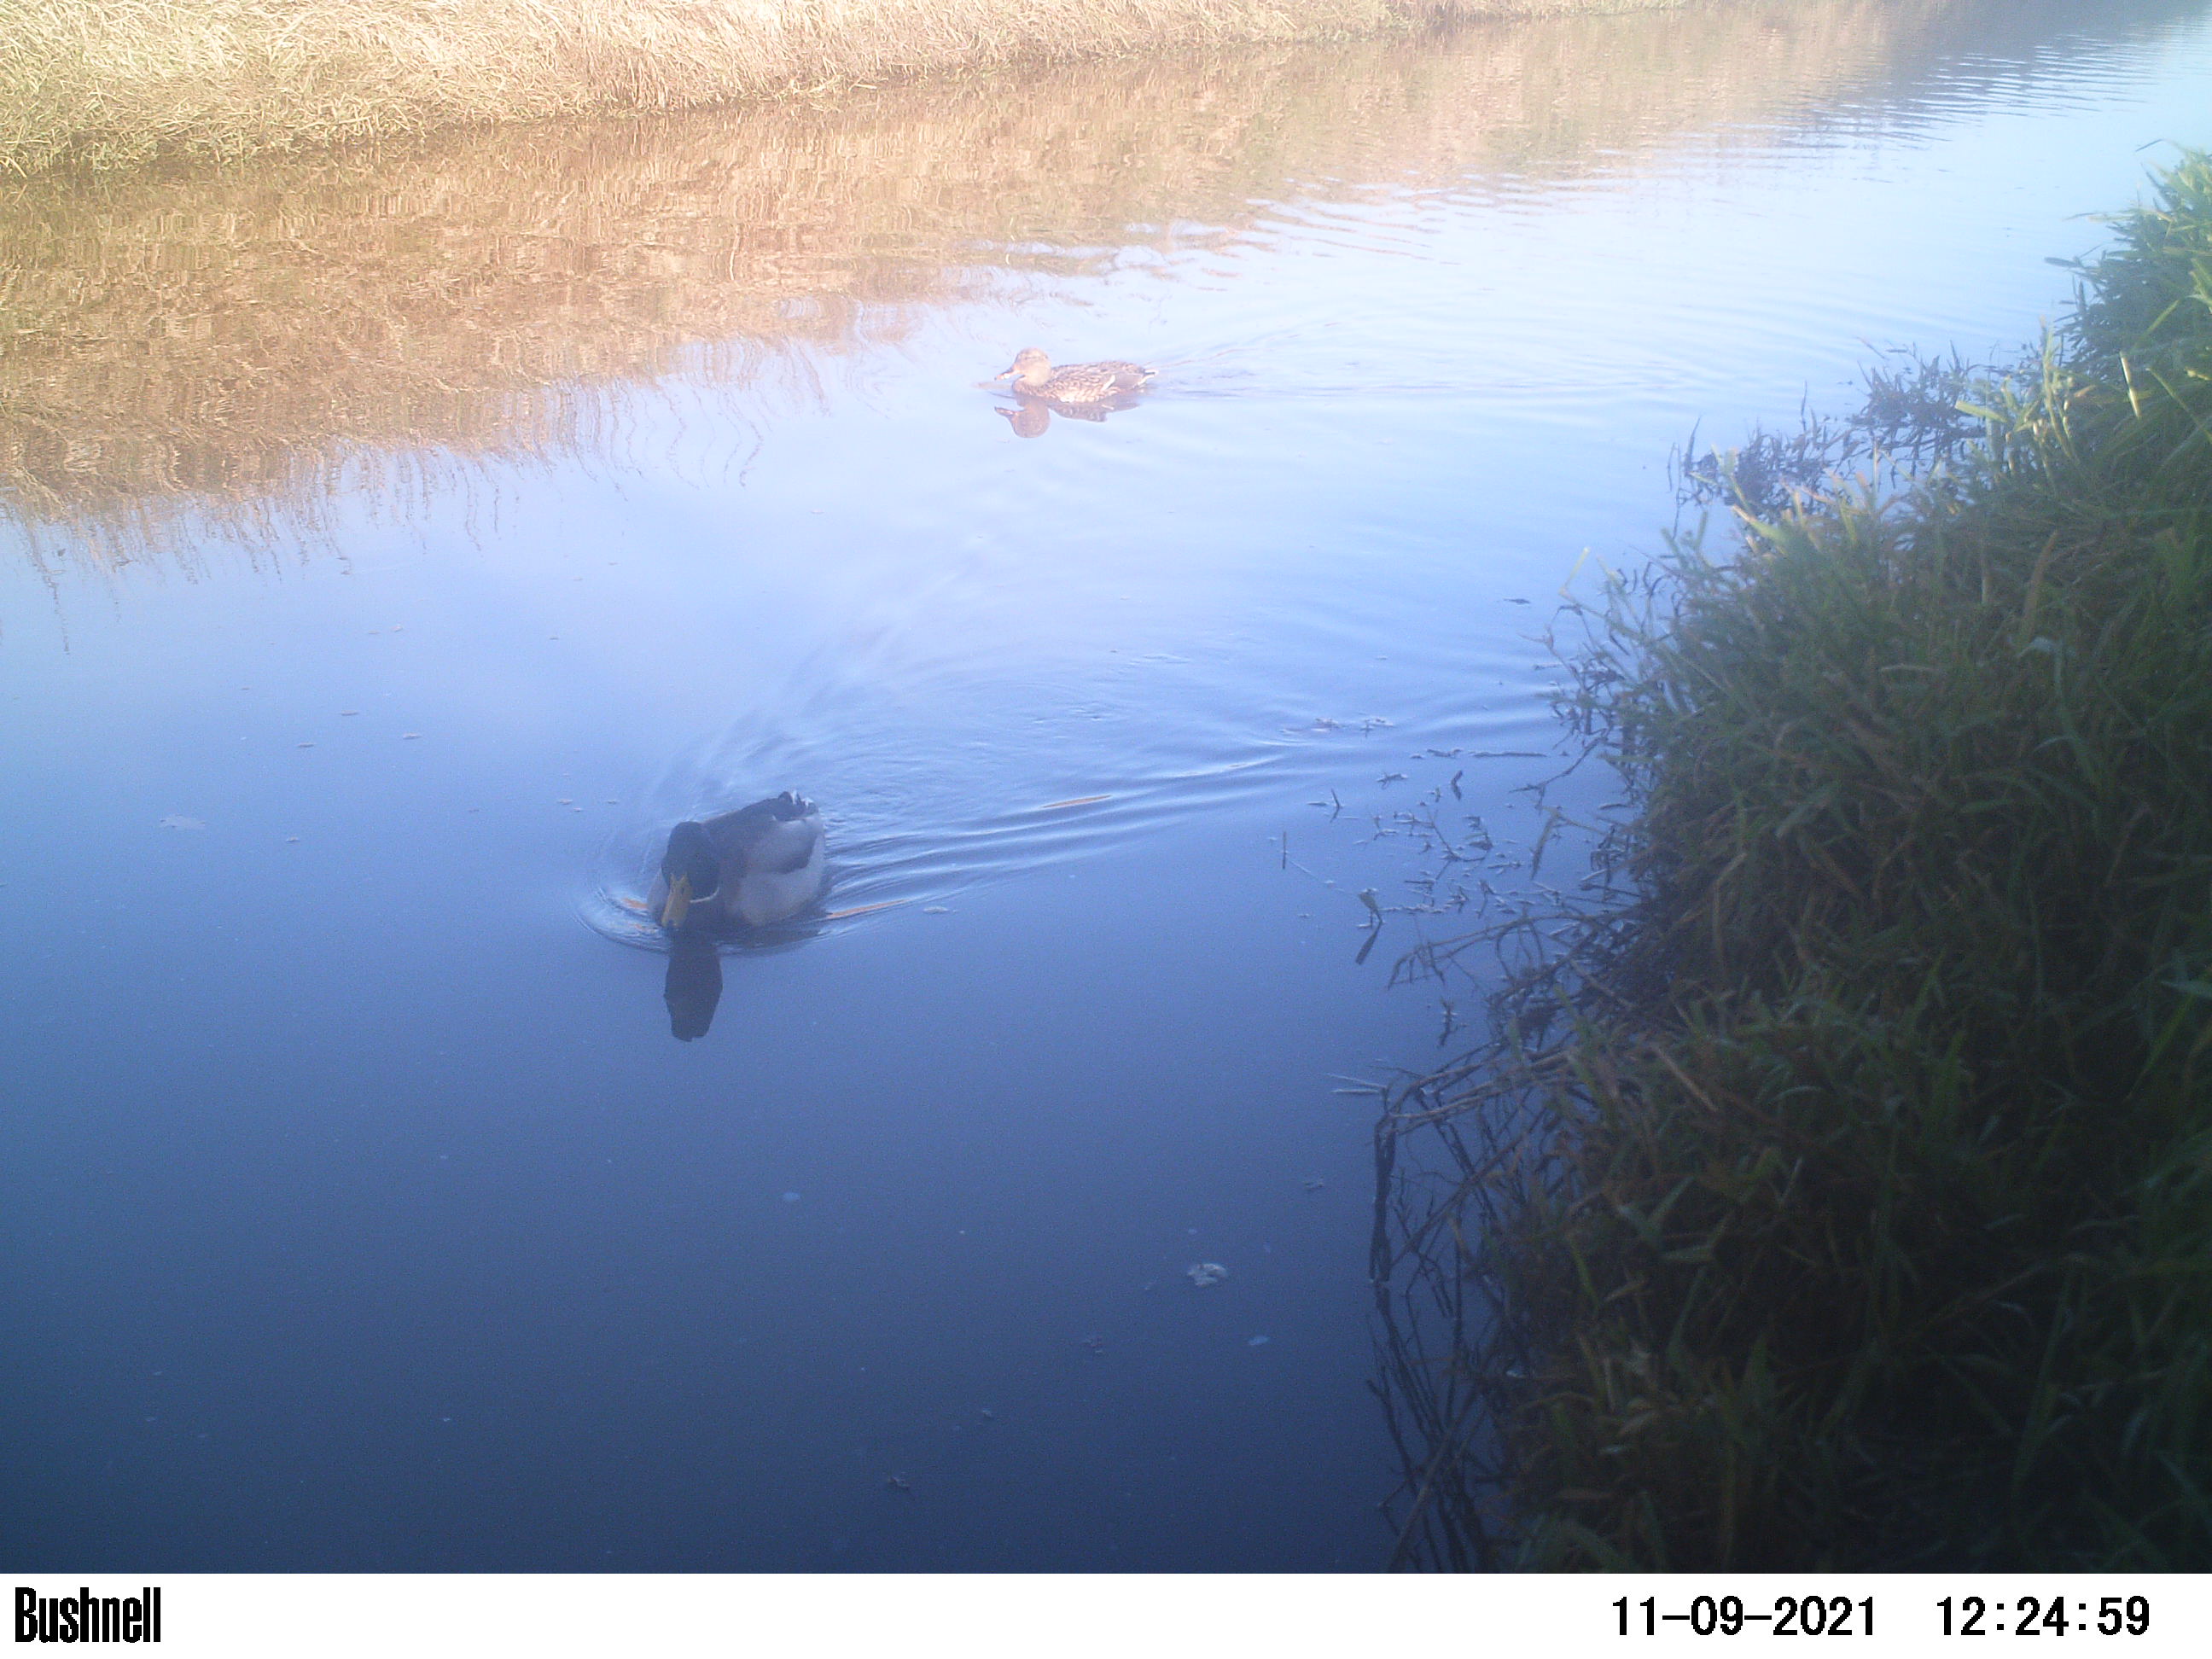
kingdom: Animalia
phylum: Chordata
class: Aves
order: Anseriformes
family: Anatidae
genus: Anas
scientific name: Anas
